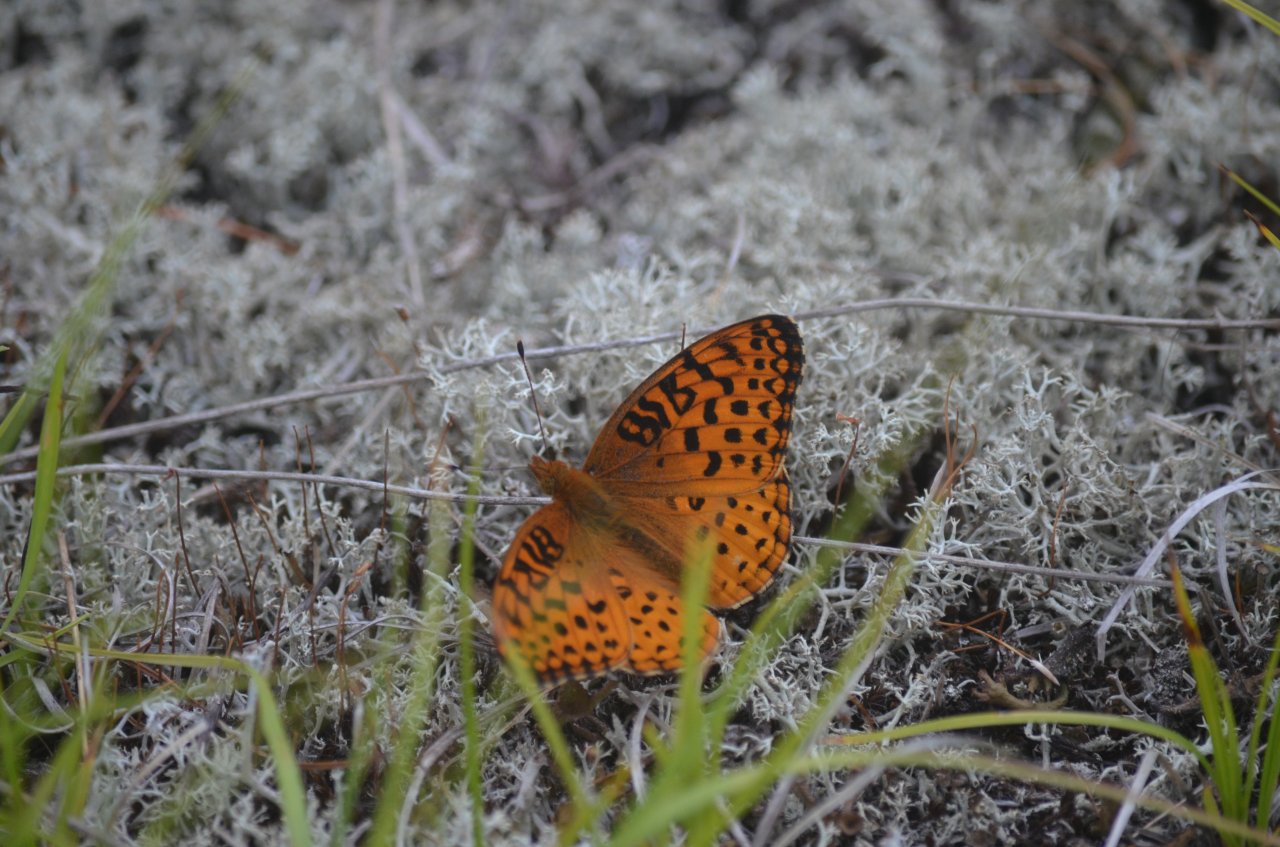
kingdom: Animalia
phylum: Arthropoda
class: Insecta
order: Lepidoptera
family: Nymphalidae
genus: Speyeria
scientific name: Speyeria aphrodite
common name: Aphrodite Fritillary
